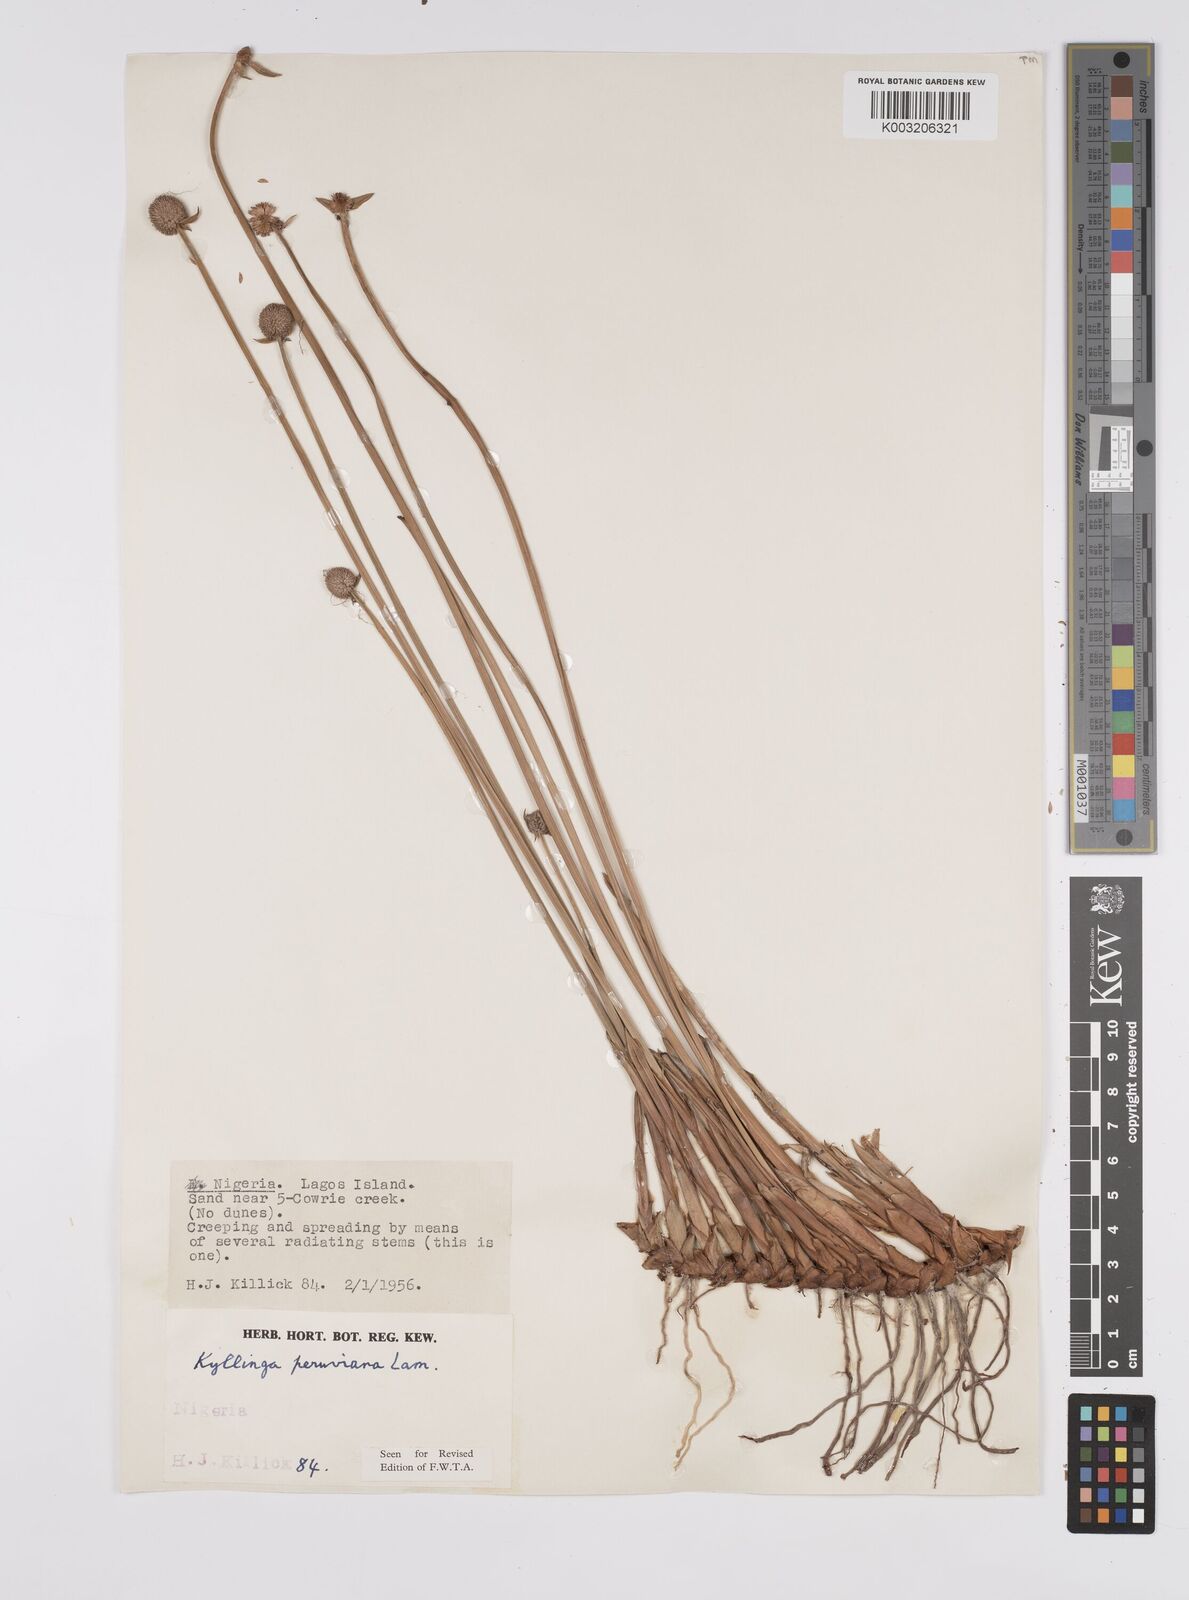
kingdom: Plantae
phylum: Tracheophyta
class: Liliopsida
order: Poales
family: Cyperaceae
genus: Cyperus
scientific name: Cyperus
